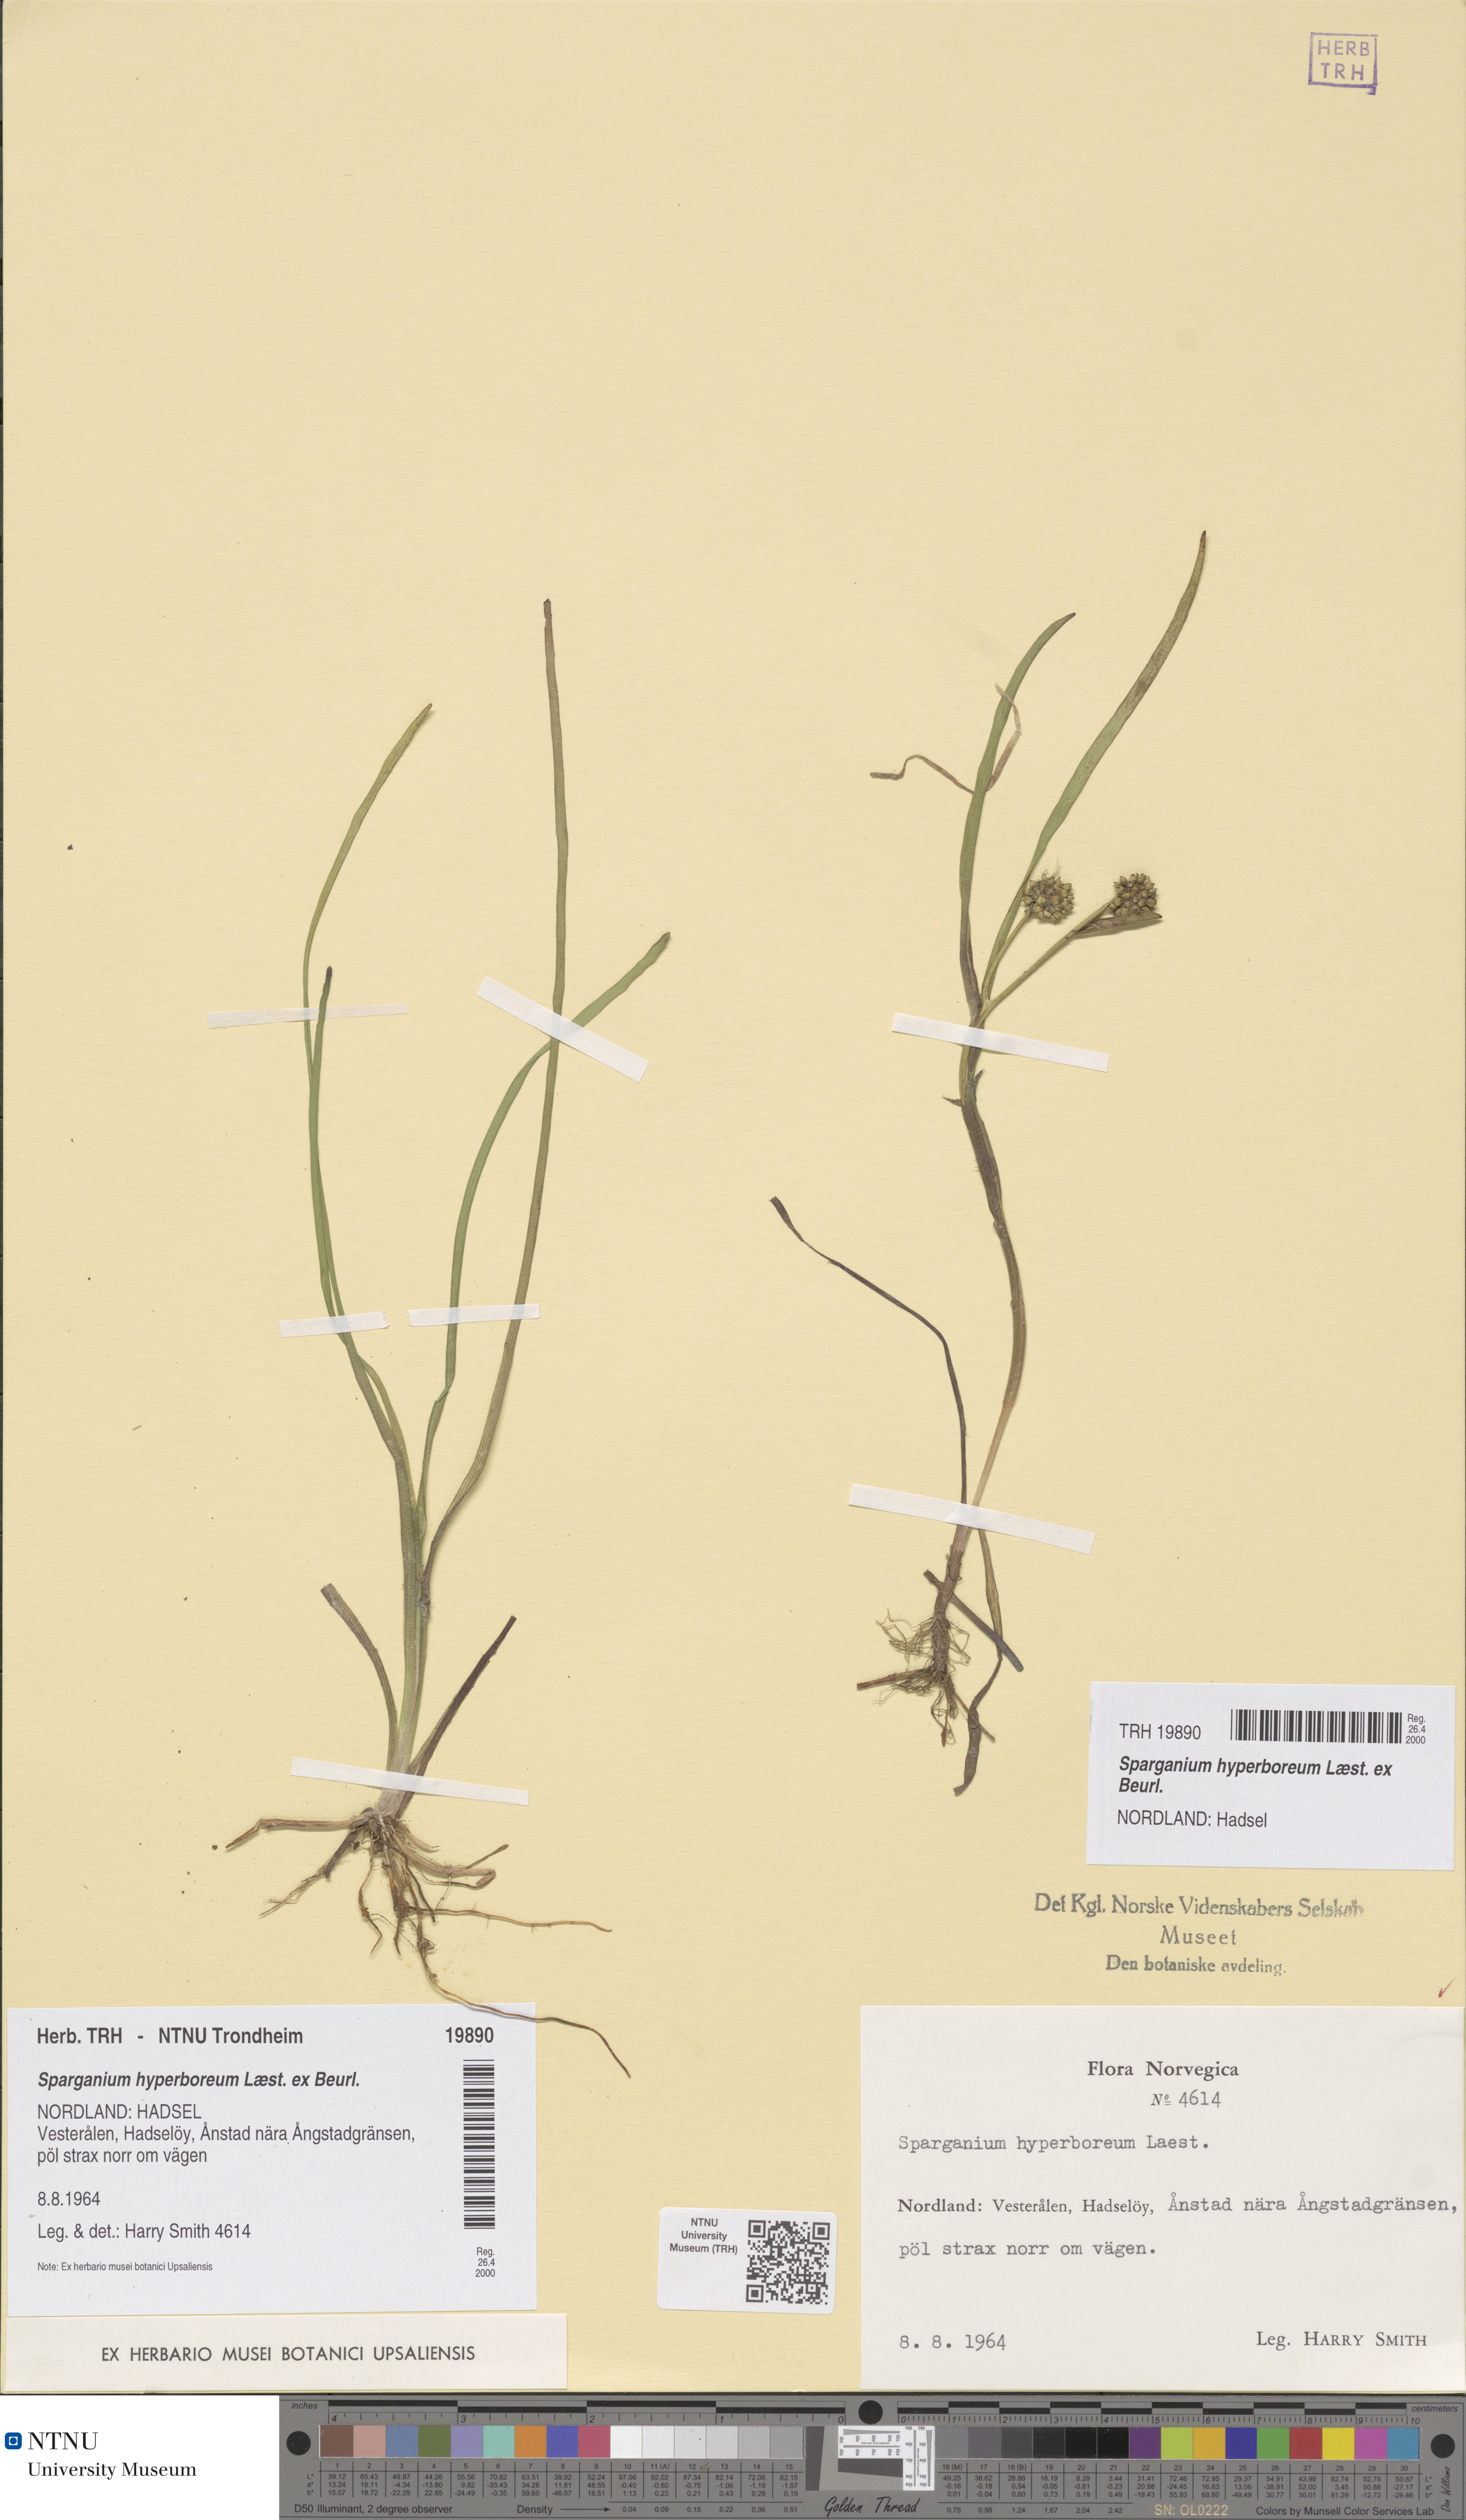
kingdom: Plantae
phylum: Tracheophyta
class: Liliopsida
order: Poales
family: Typhaceae
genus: Sparganium
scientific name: Sparganium hyperboreum
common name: Arctic burreed
